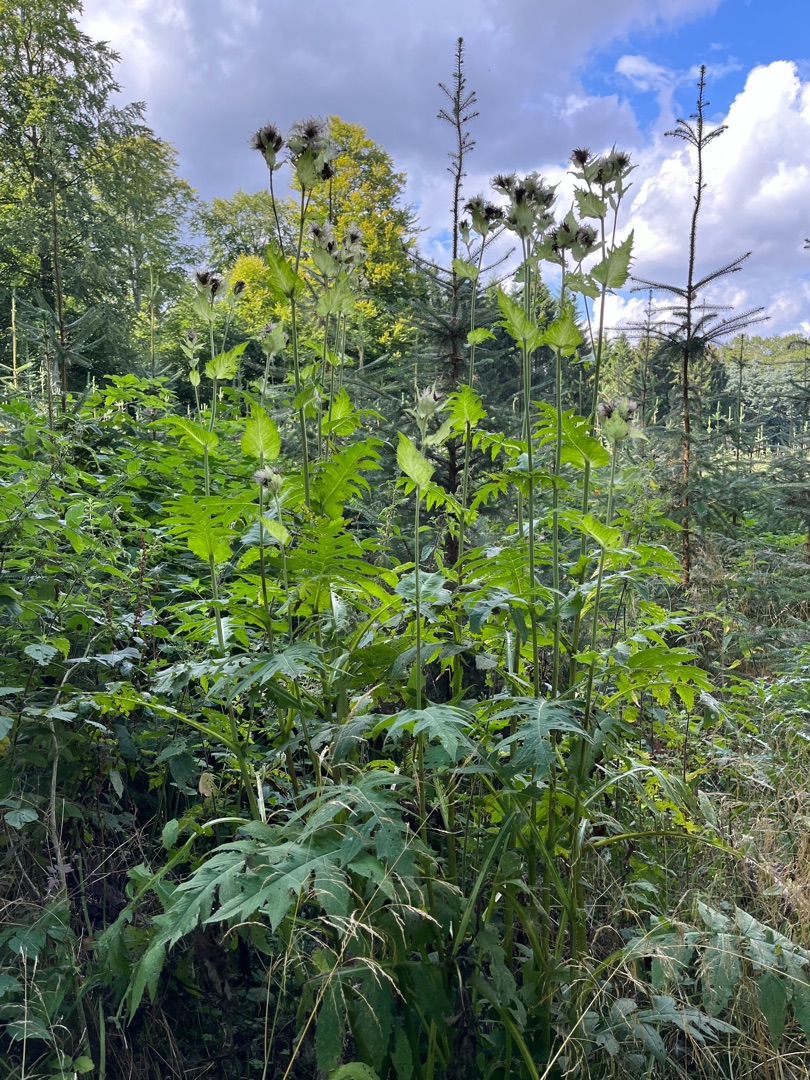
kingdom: Plantae
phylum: Tracheophyta
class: Magnoliopsida
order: Asterales
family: Asteraceae
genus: Cirsium
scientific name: Cirsium oleraceum
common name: Kål-tidsel
